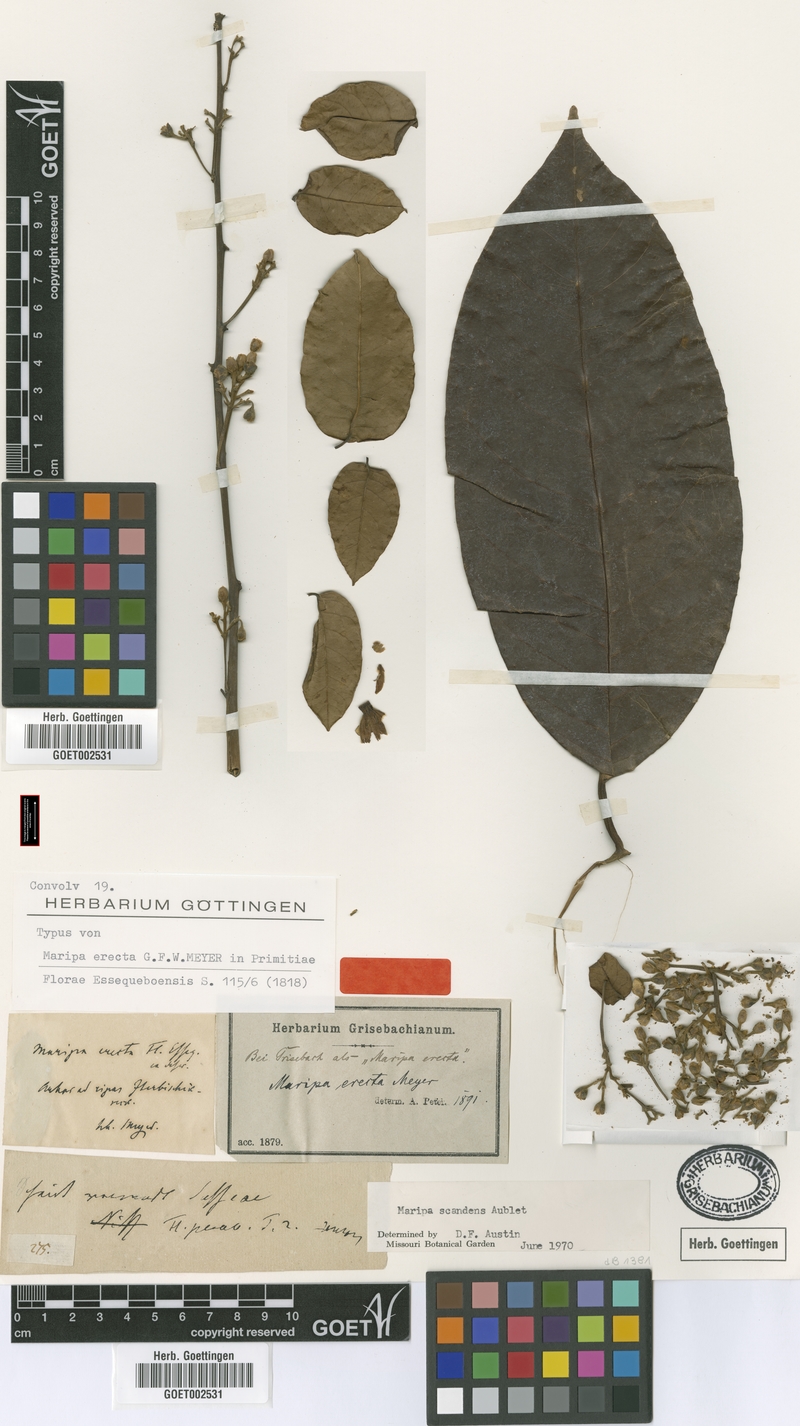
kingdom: Plantae
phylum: Tracheophyta
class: Magnoliopsida
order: Solanales
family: Convolvulaceae
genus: Maripa
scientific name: Maripa scandens
